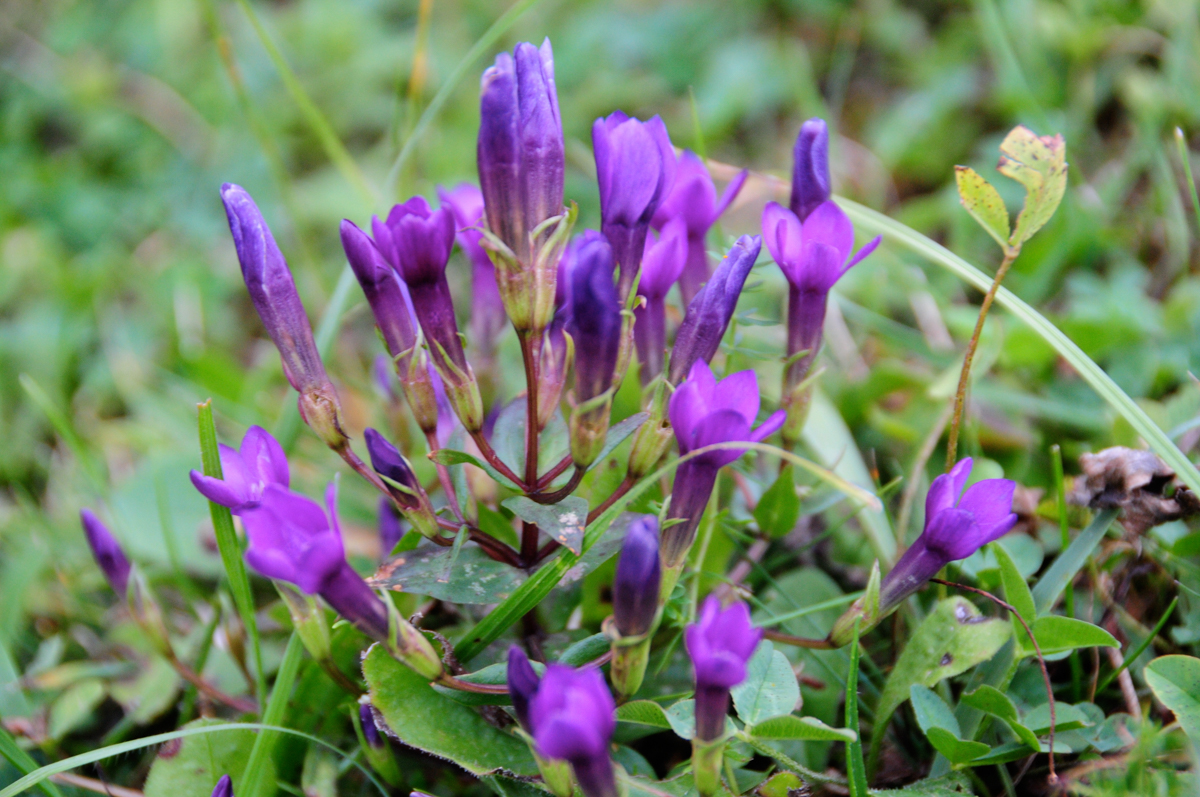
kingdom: Plantae
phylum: Tracheophyta
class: Magnoliopsida
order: Gentianales
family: Gentianaceae
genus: Gentianella
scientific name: Gentianella caucasea
